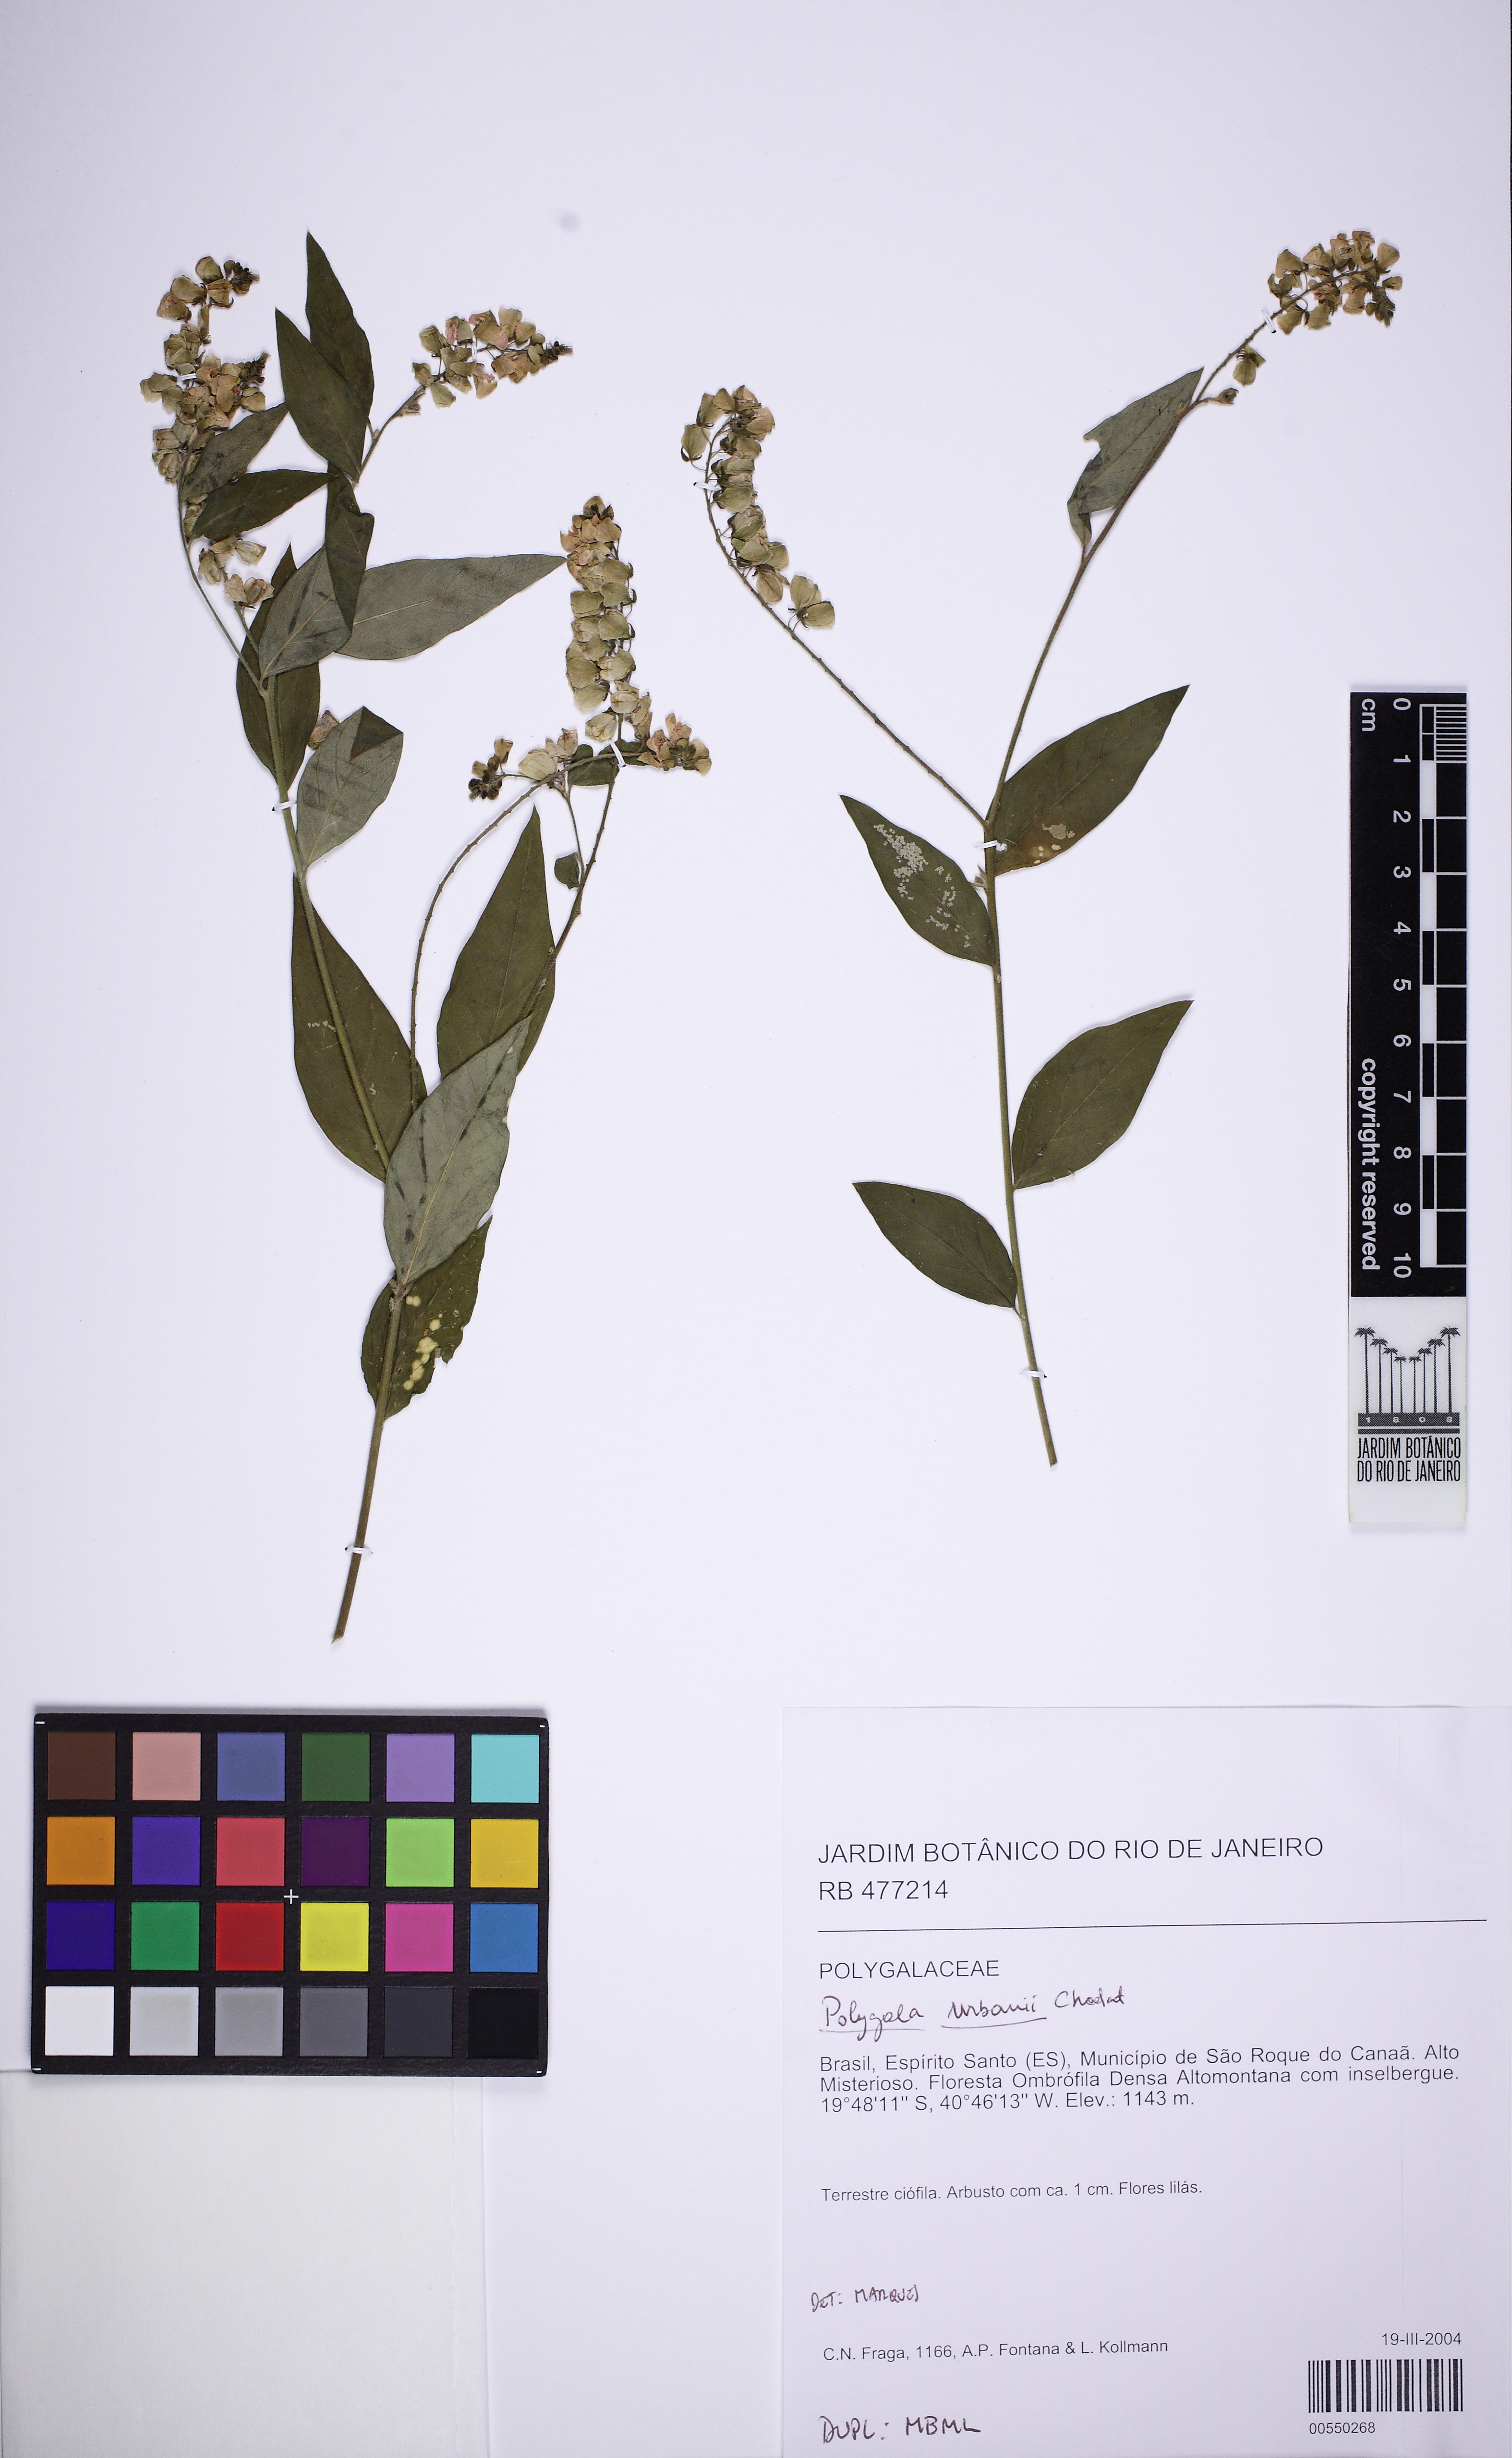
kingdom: Plantae
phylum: Tracheophyta
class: Magnoliopsida
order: Fabales
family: Polygalaceae
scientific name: Polygalaceae
